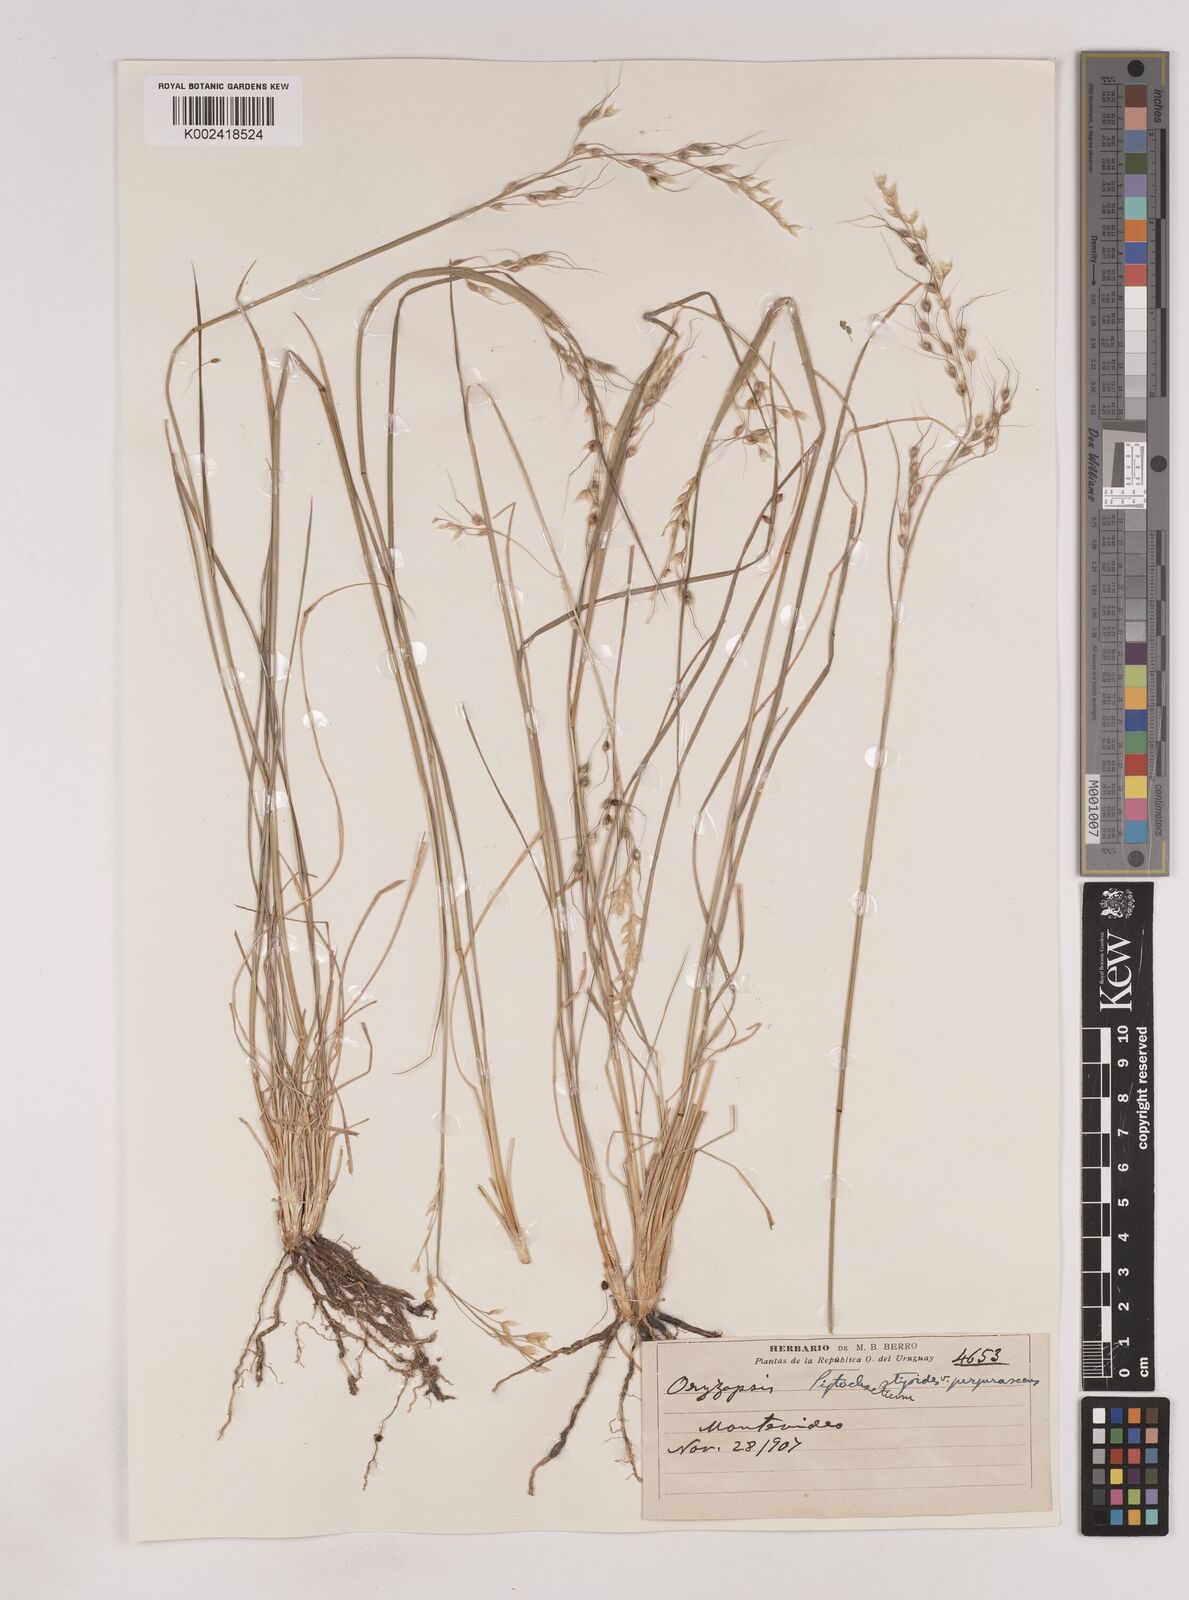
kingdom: Plantae
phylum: Tracheophyta
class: Liliopsida
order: Poales
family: Poaceae
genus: Piptochaetium
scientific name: Piptochaetium stipoides
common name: Purple speargrass
